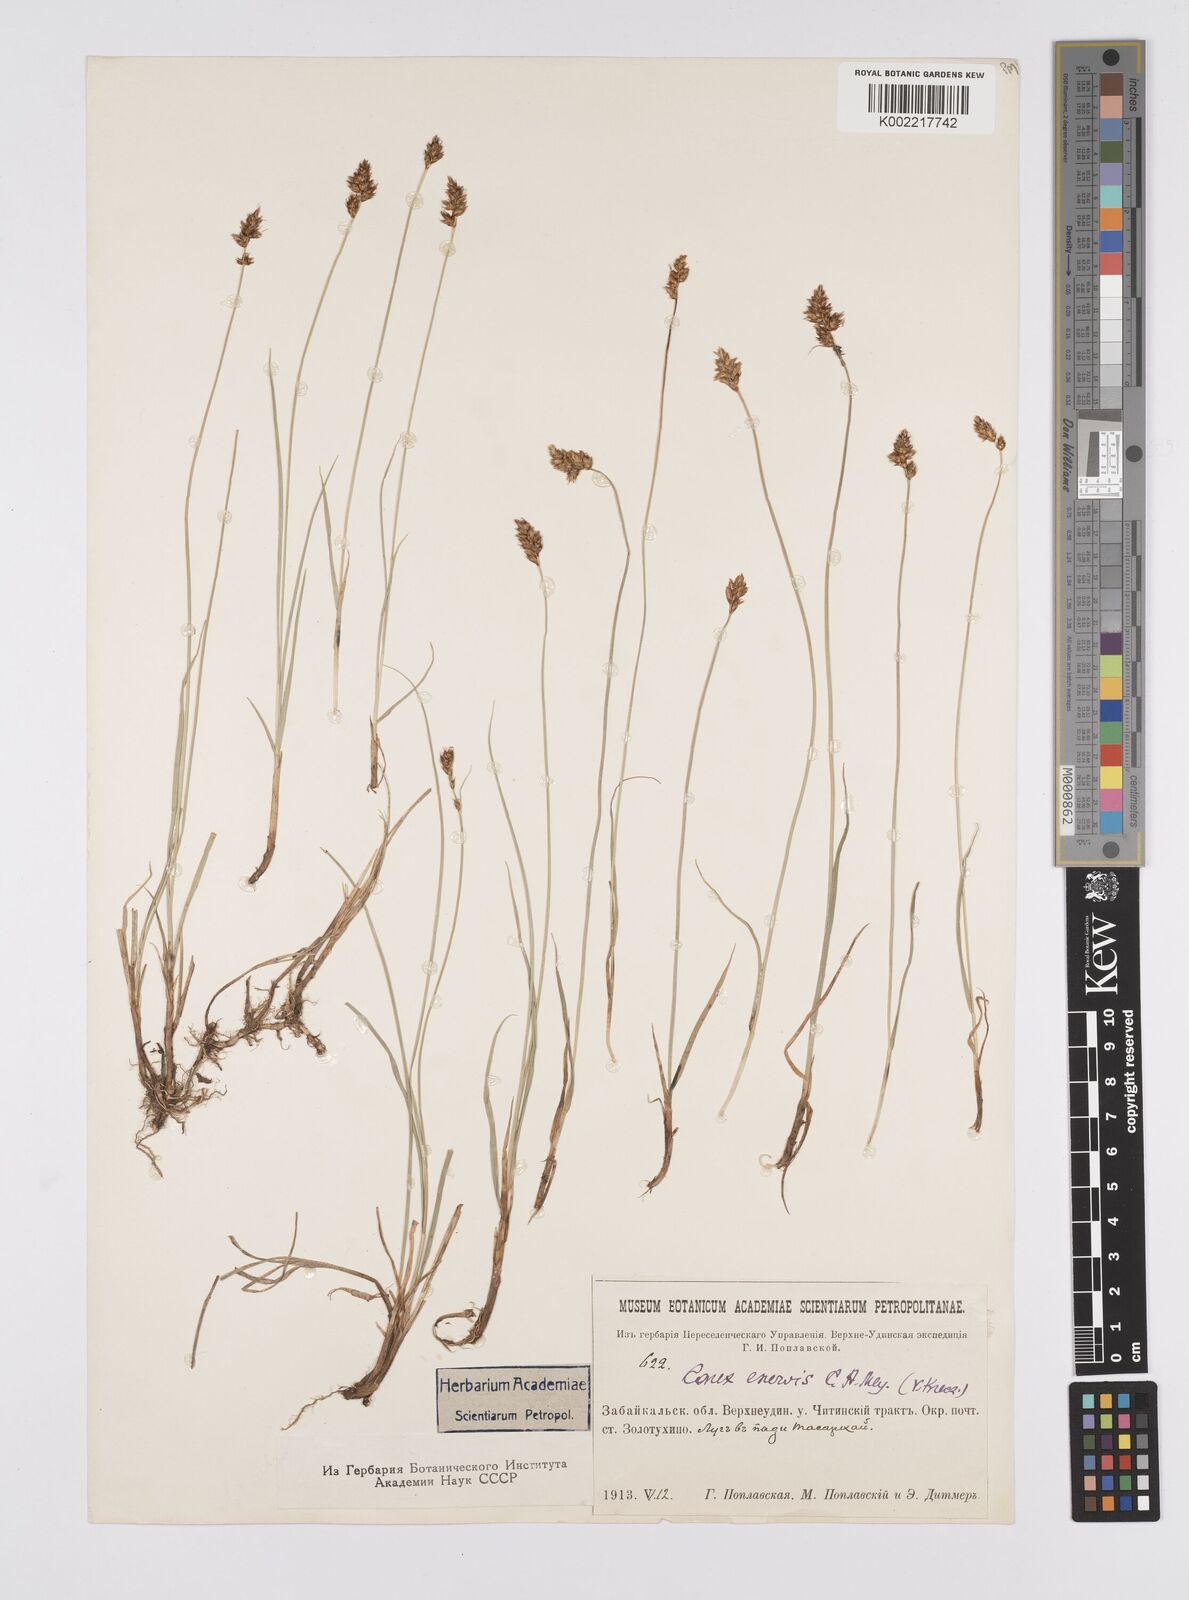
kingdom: Plantae
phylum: Tracheophyta
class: Liliopsida
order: Poales
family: Cyperaceae
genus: Carex
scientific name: Carex stenophylla
